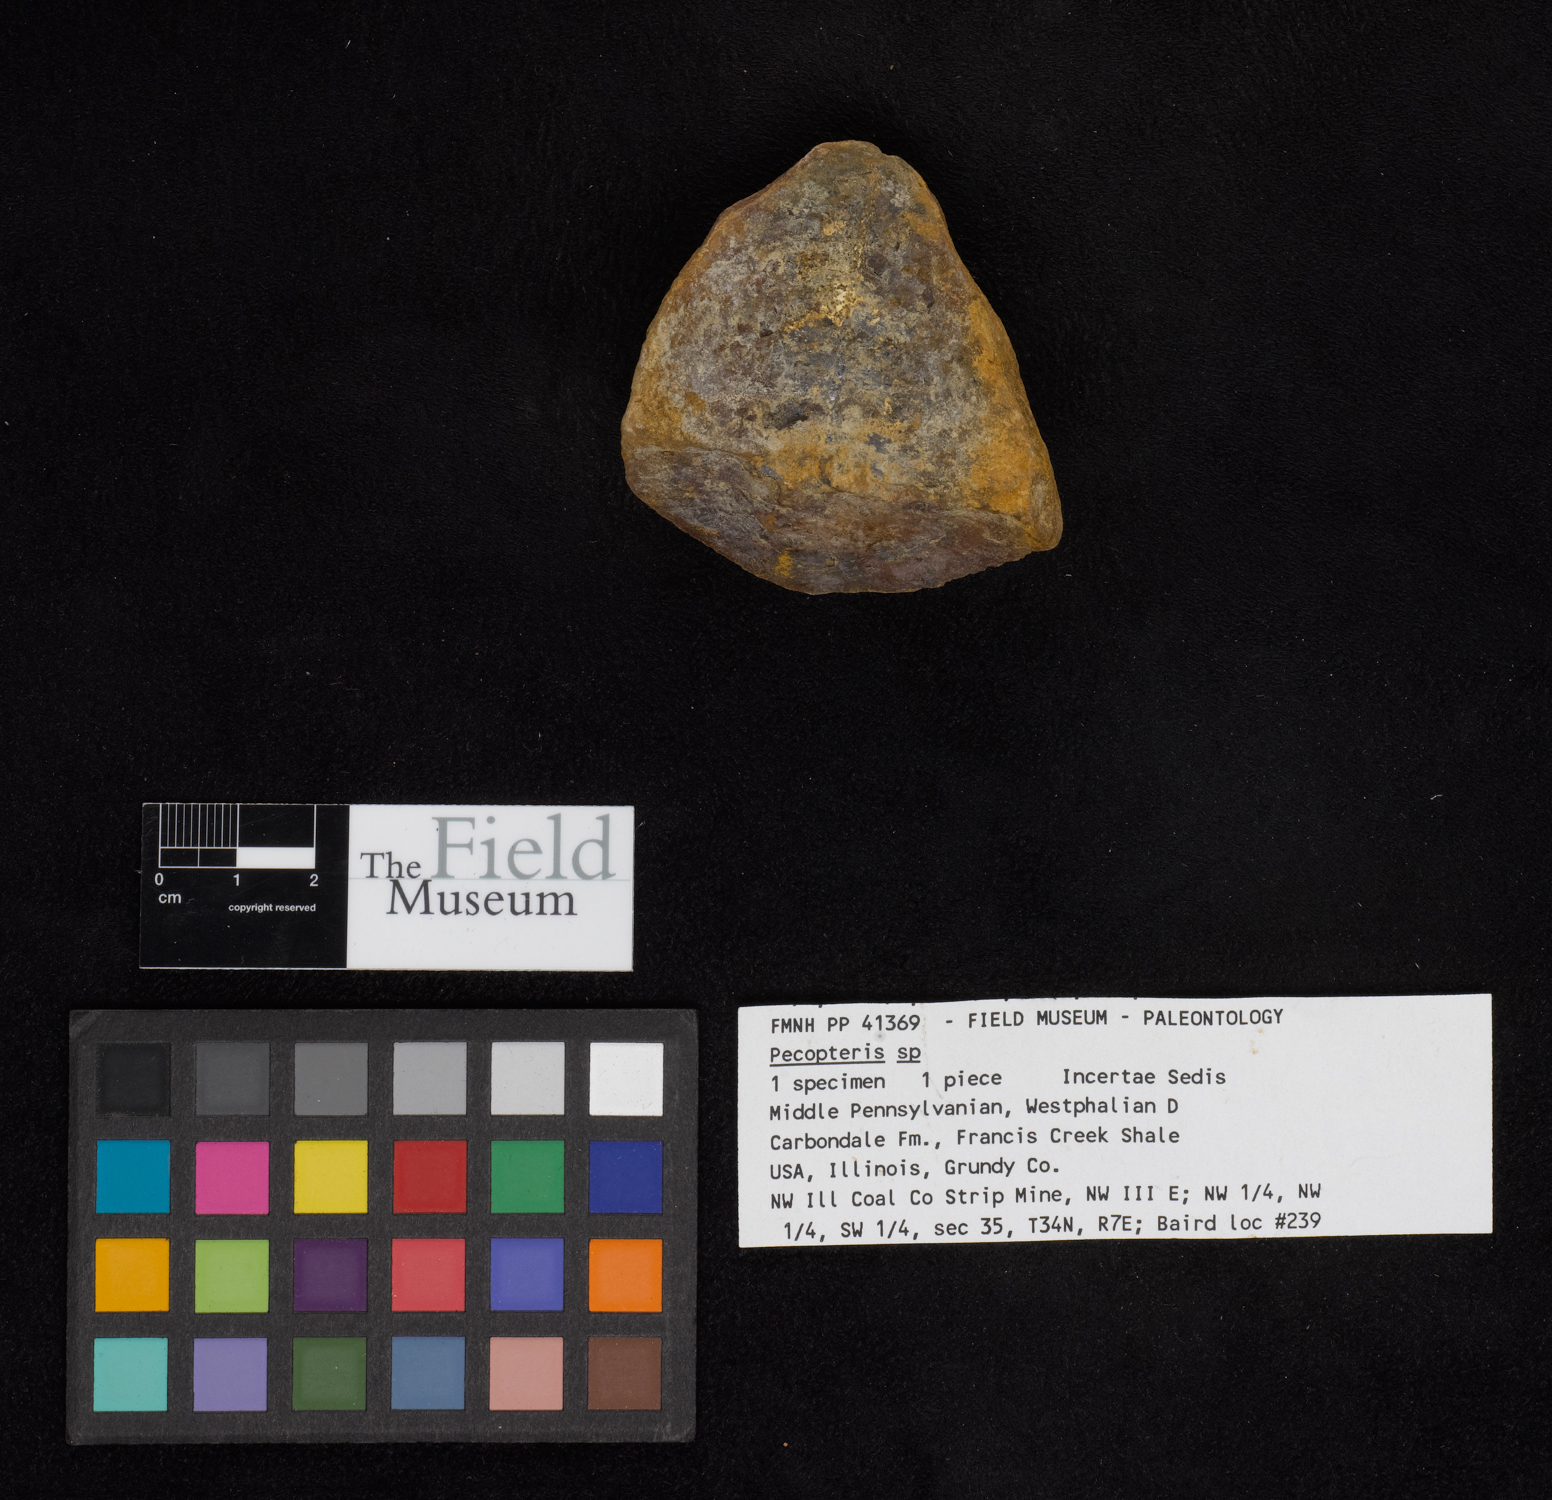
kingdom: Plantae
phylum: Tracheophyta
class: Polypodiopsida
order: Marattiales
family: Asterothecaceae
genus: Pecopteris
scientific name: Pecopteris
